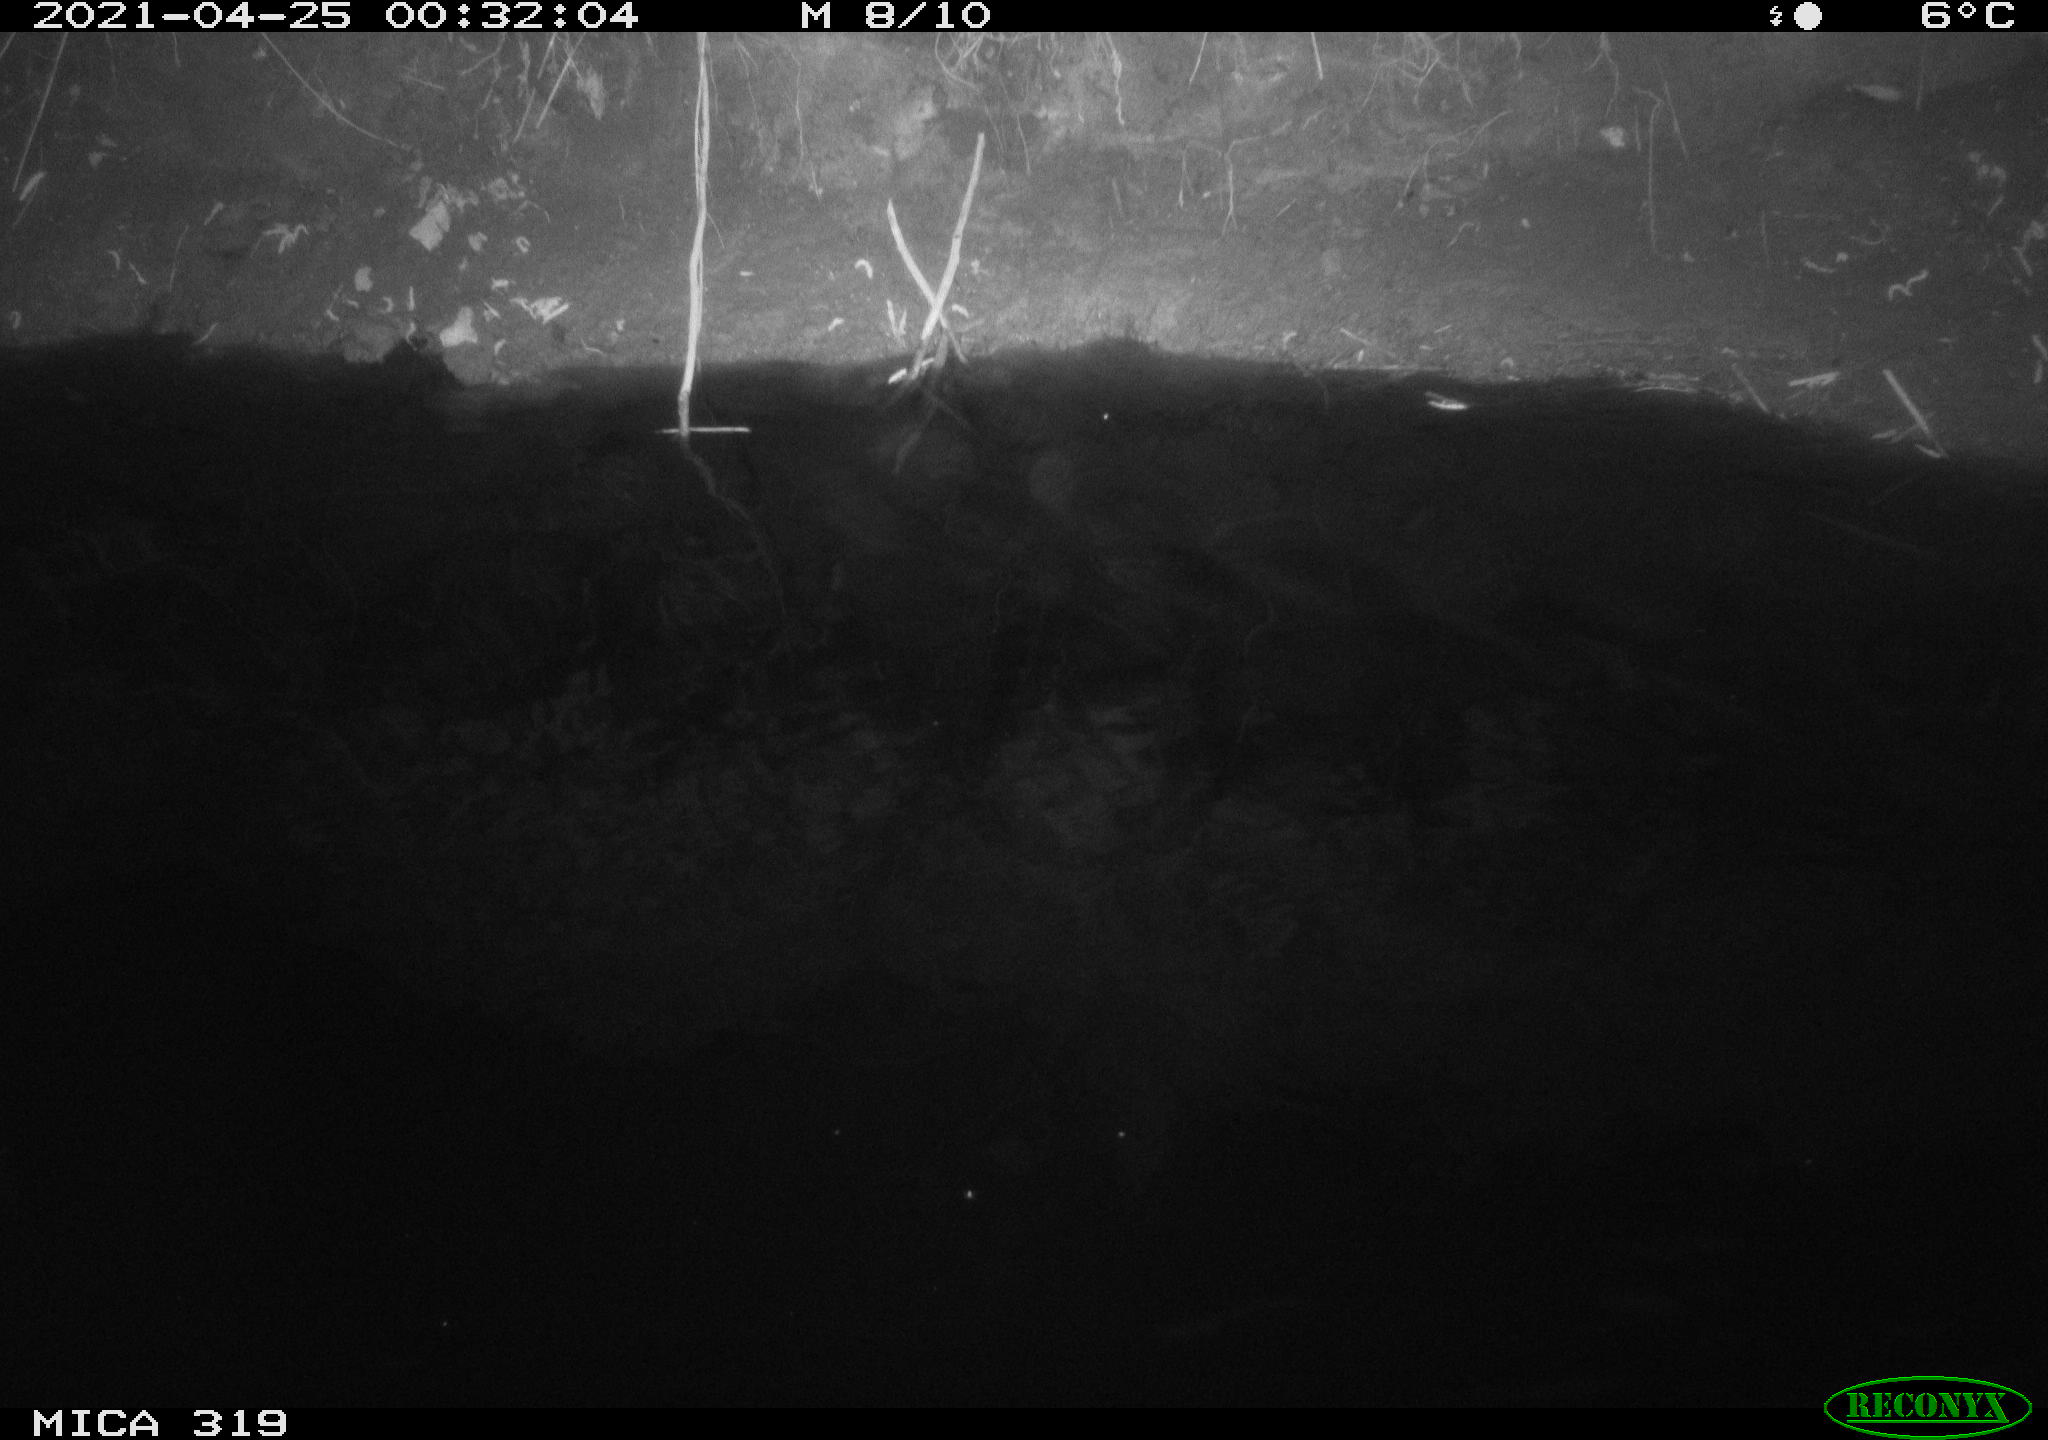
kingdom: Animalia
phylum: Chordata
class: Aves
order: Anseriformes
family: Anatidae
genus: Anas
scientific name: Anas platyrhynchos
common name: Mallard
